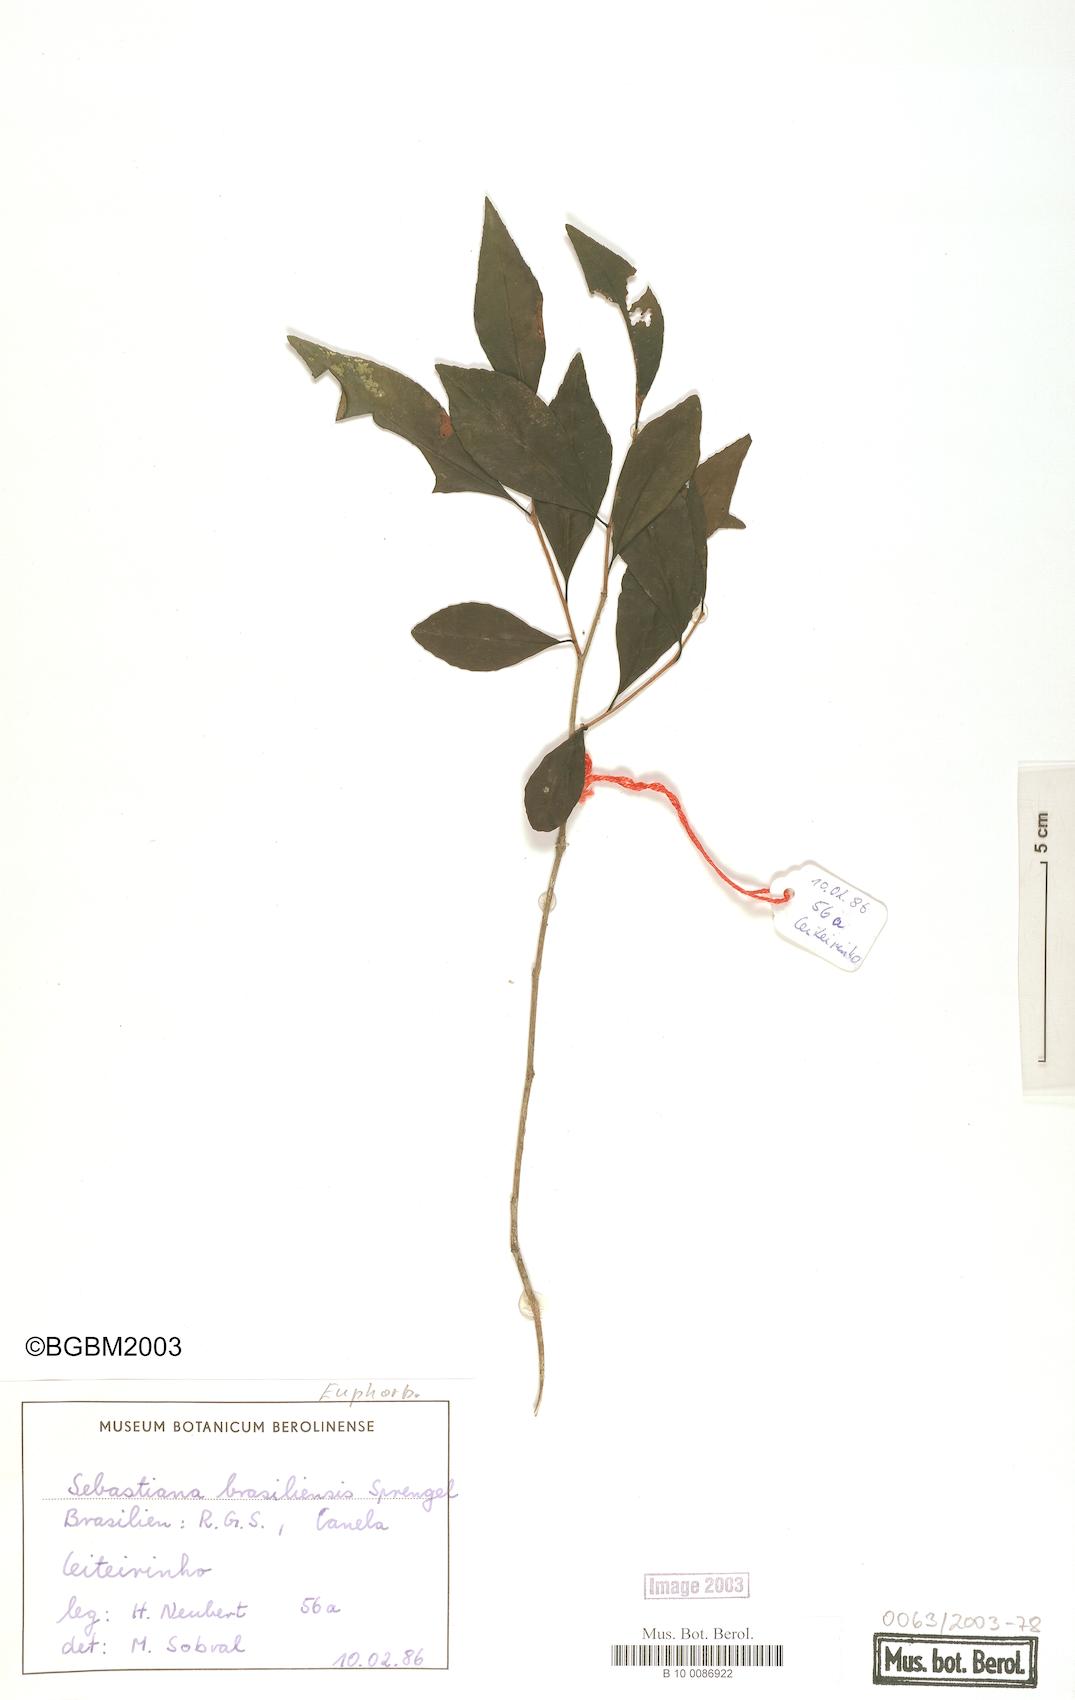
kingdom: Plantae
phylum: Tracheophyta
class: Magnoliopsida
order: Malpighiales
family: Euphorbiaceae
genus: Sebastiania
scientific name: Sebastiania brasiliensis
